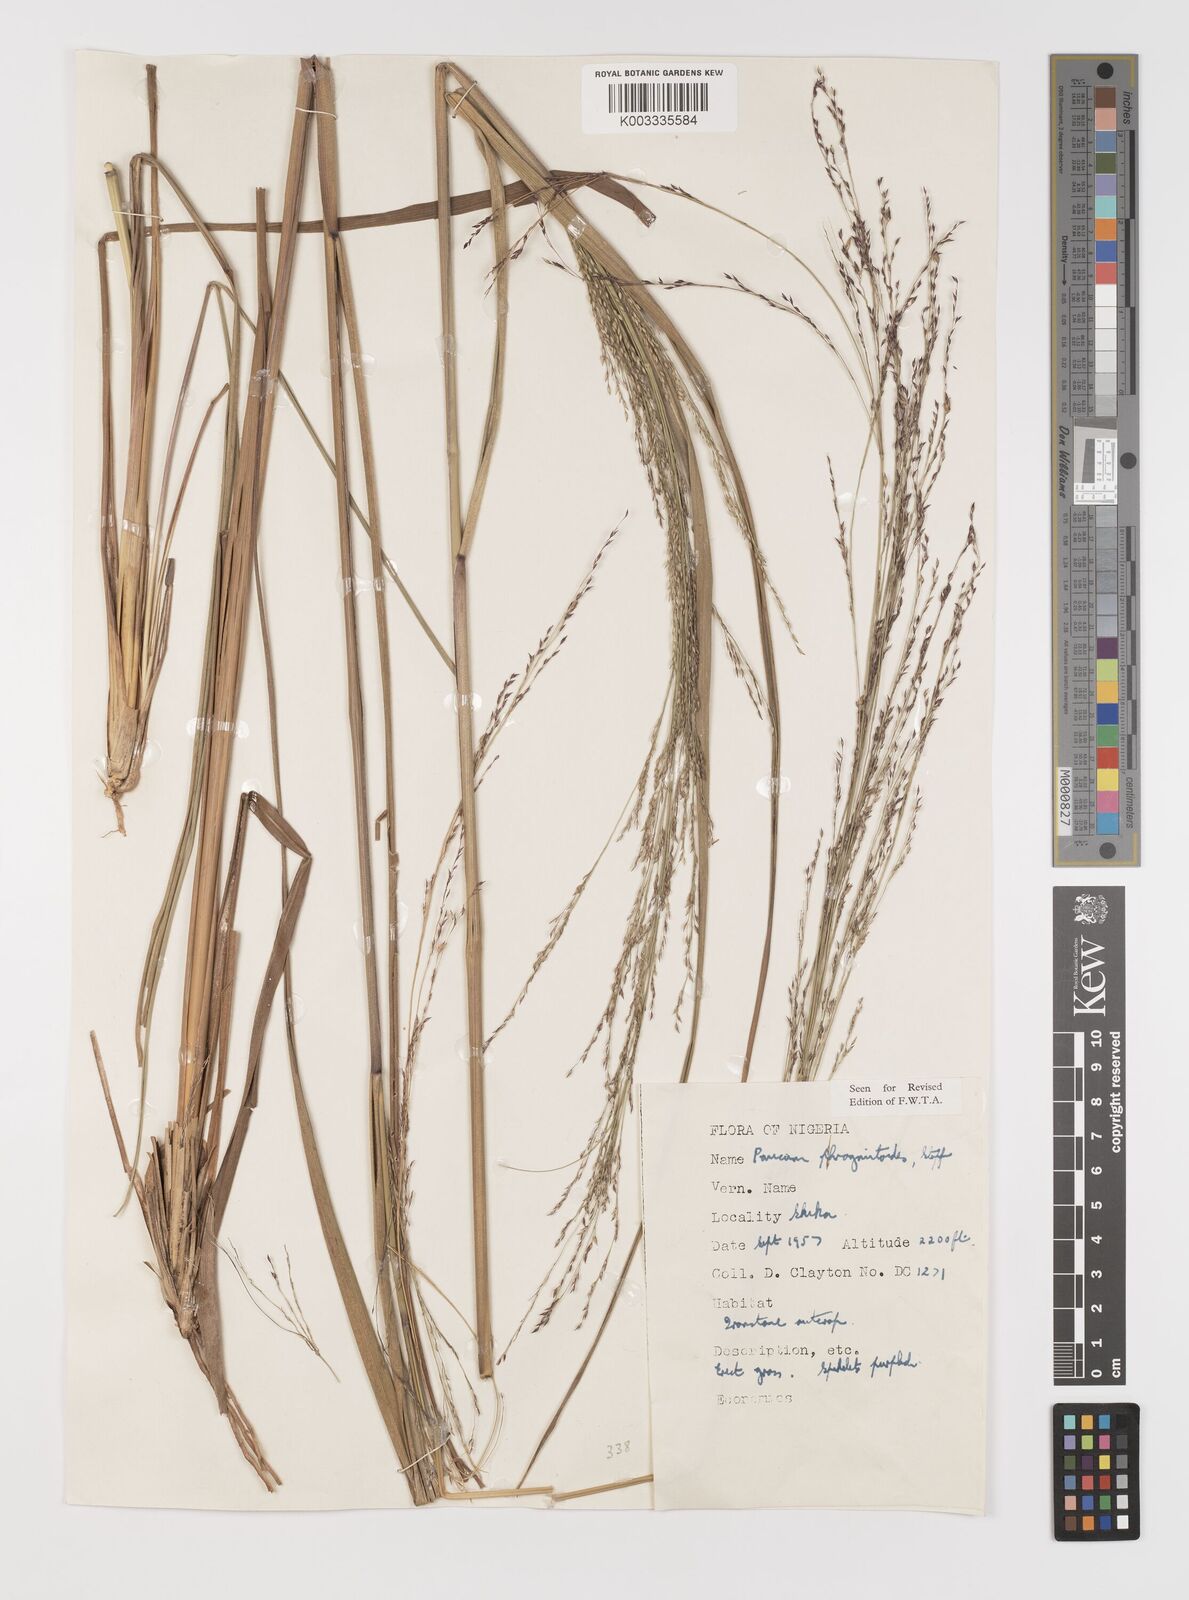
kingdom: Plantae
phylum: Tracheophyta
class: Liliopsida
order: Poales
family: Poaceae
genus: Panicum
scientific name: Panicum phragmitoides
